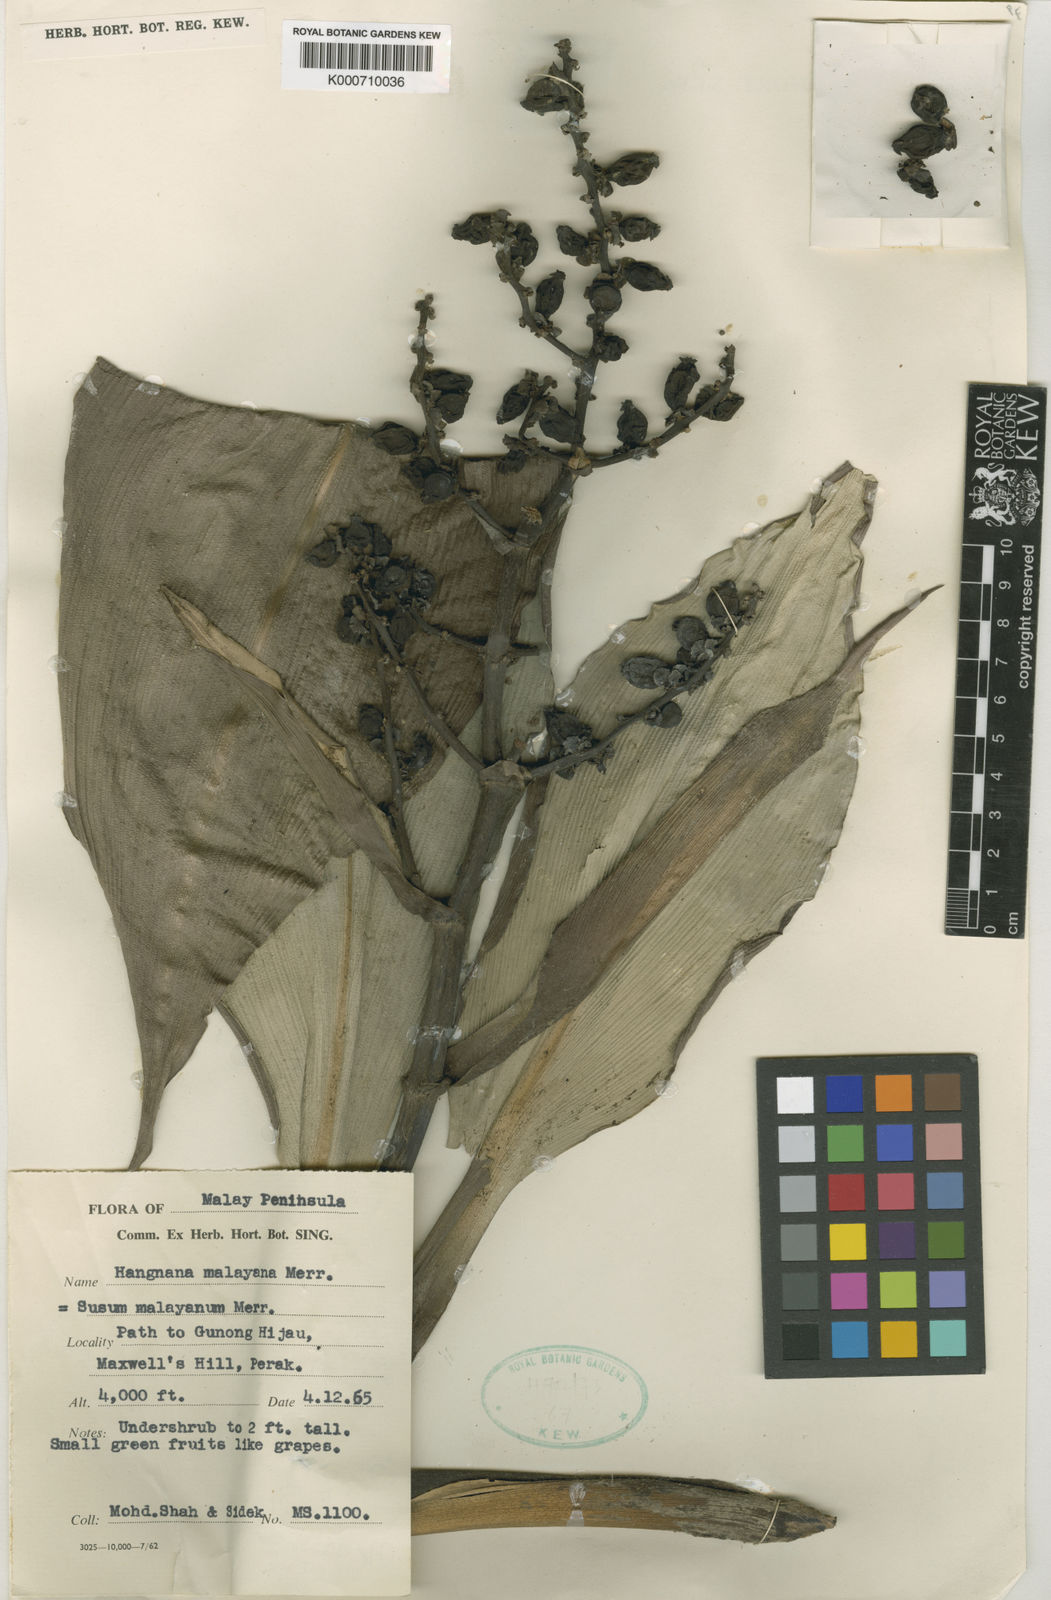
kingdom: Plantae
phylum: Tracheophyta
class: Liliopsida
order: Commelinales
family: Hanguanaceae
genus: Hanguana
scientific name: Hanguana malayana
